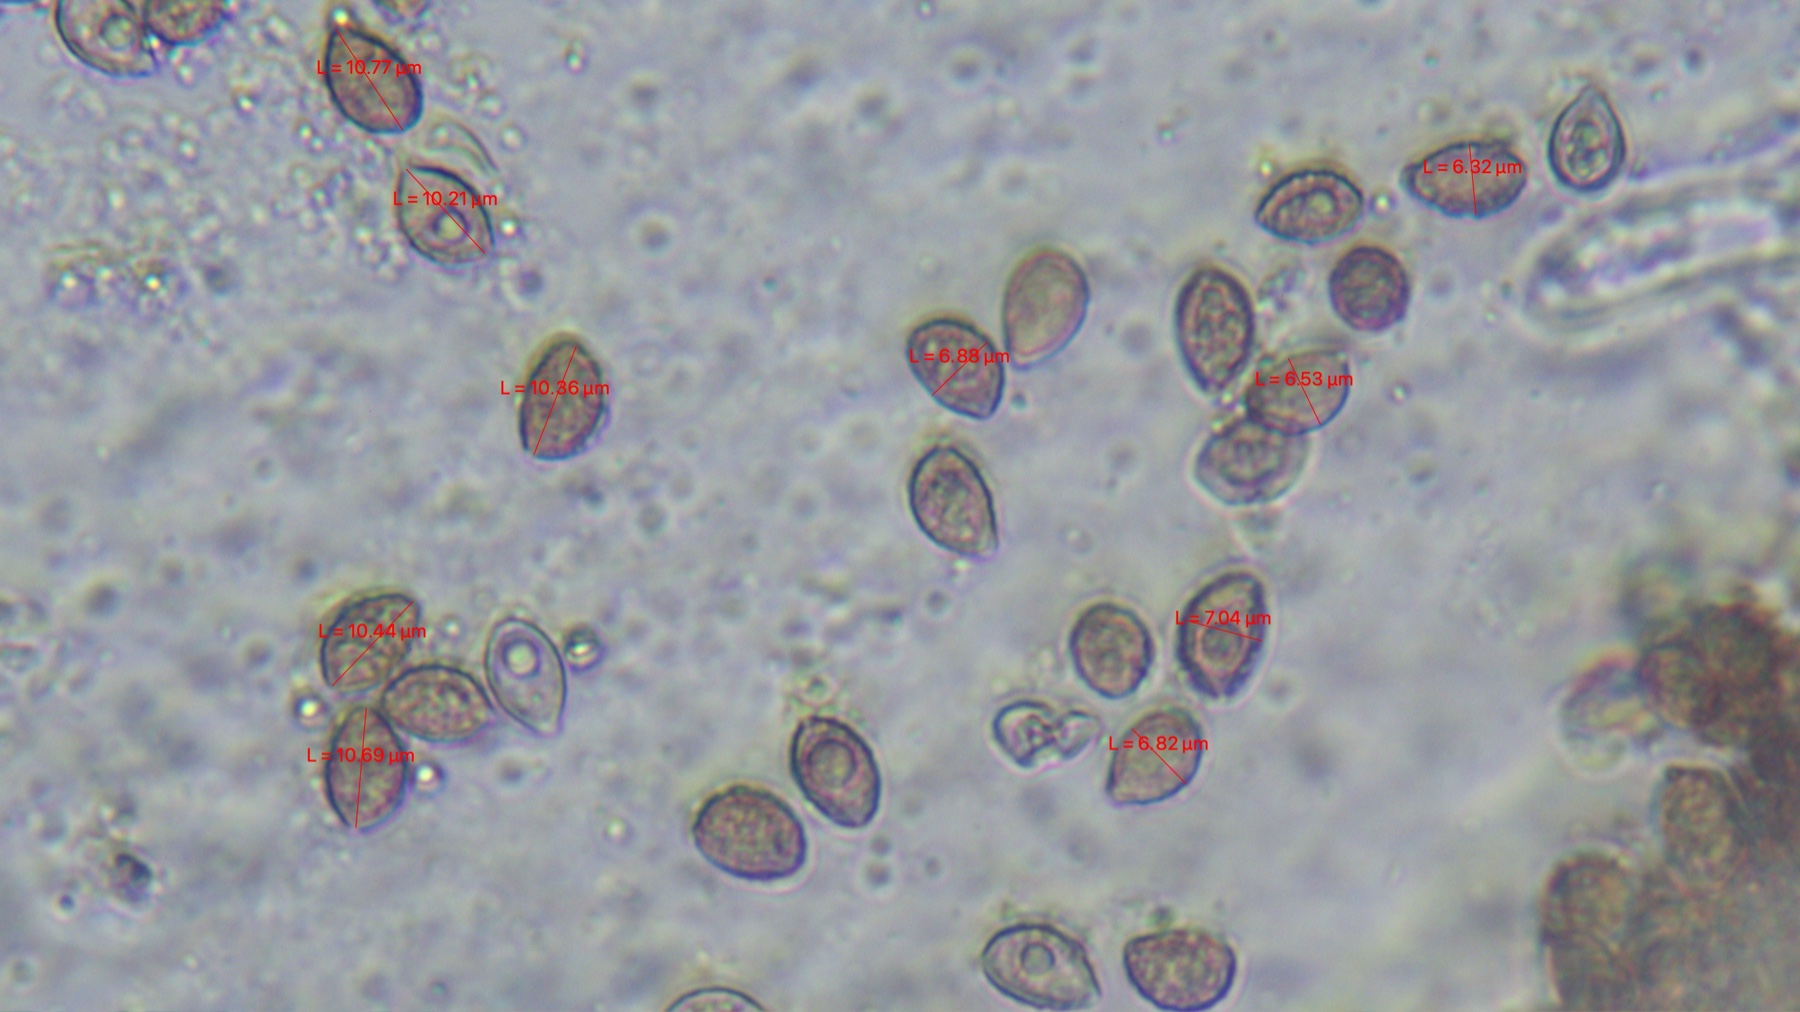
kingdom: Fungi
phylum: Basidiomycota
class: Agaricomycetes
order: Agaricales
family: Hymenogastraceae
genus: Hebeloma
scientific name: Hebeloma sinapizans
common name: ræddike-tåreblad
